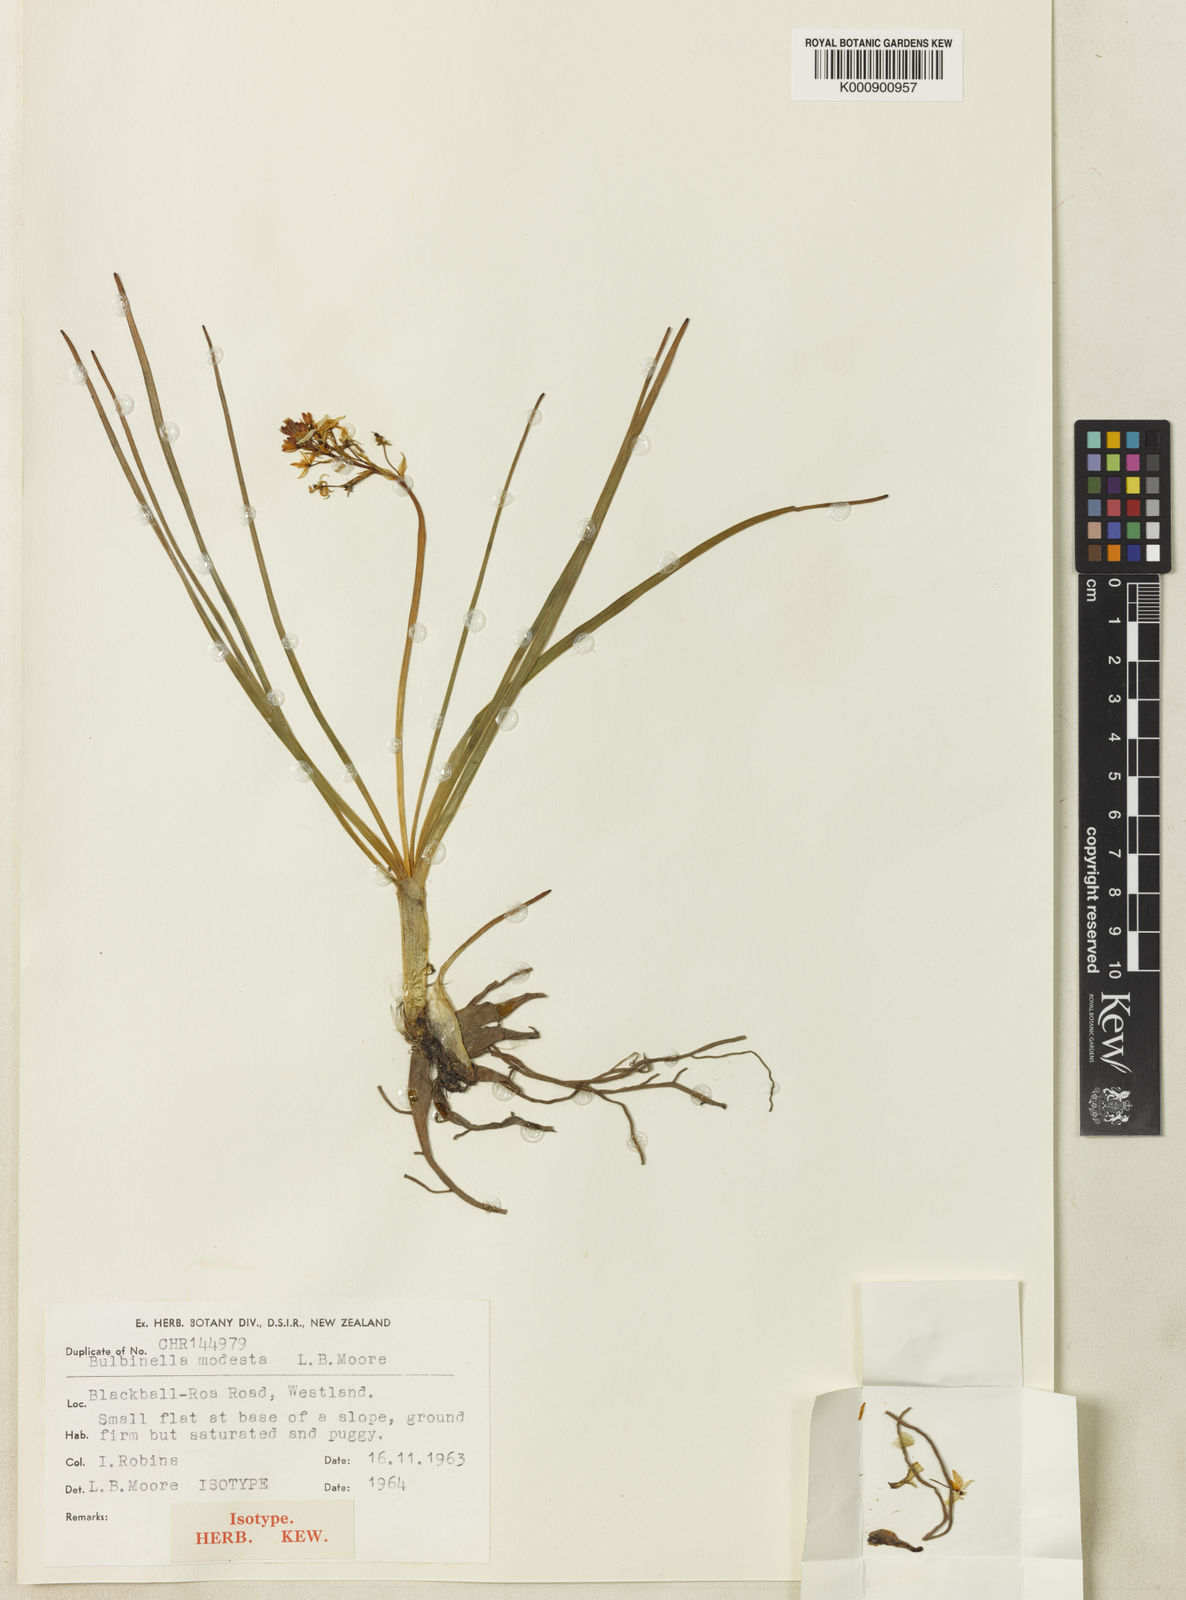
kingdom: Plantae
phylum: Tracheophyta
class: Liliopsida
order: Asparagales
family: Asphodelaceae
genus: Bulbinella
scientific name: Bulbinella modesta
